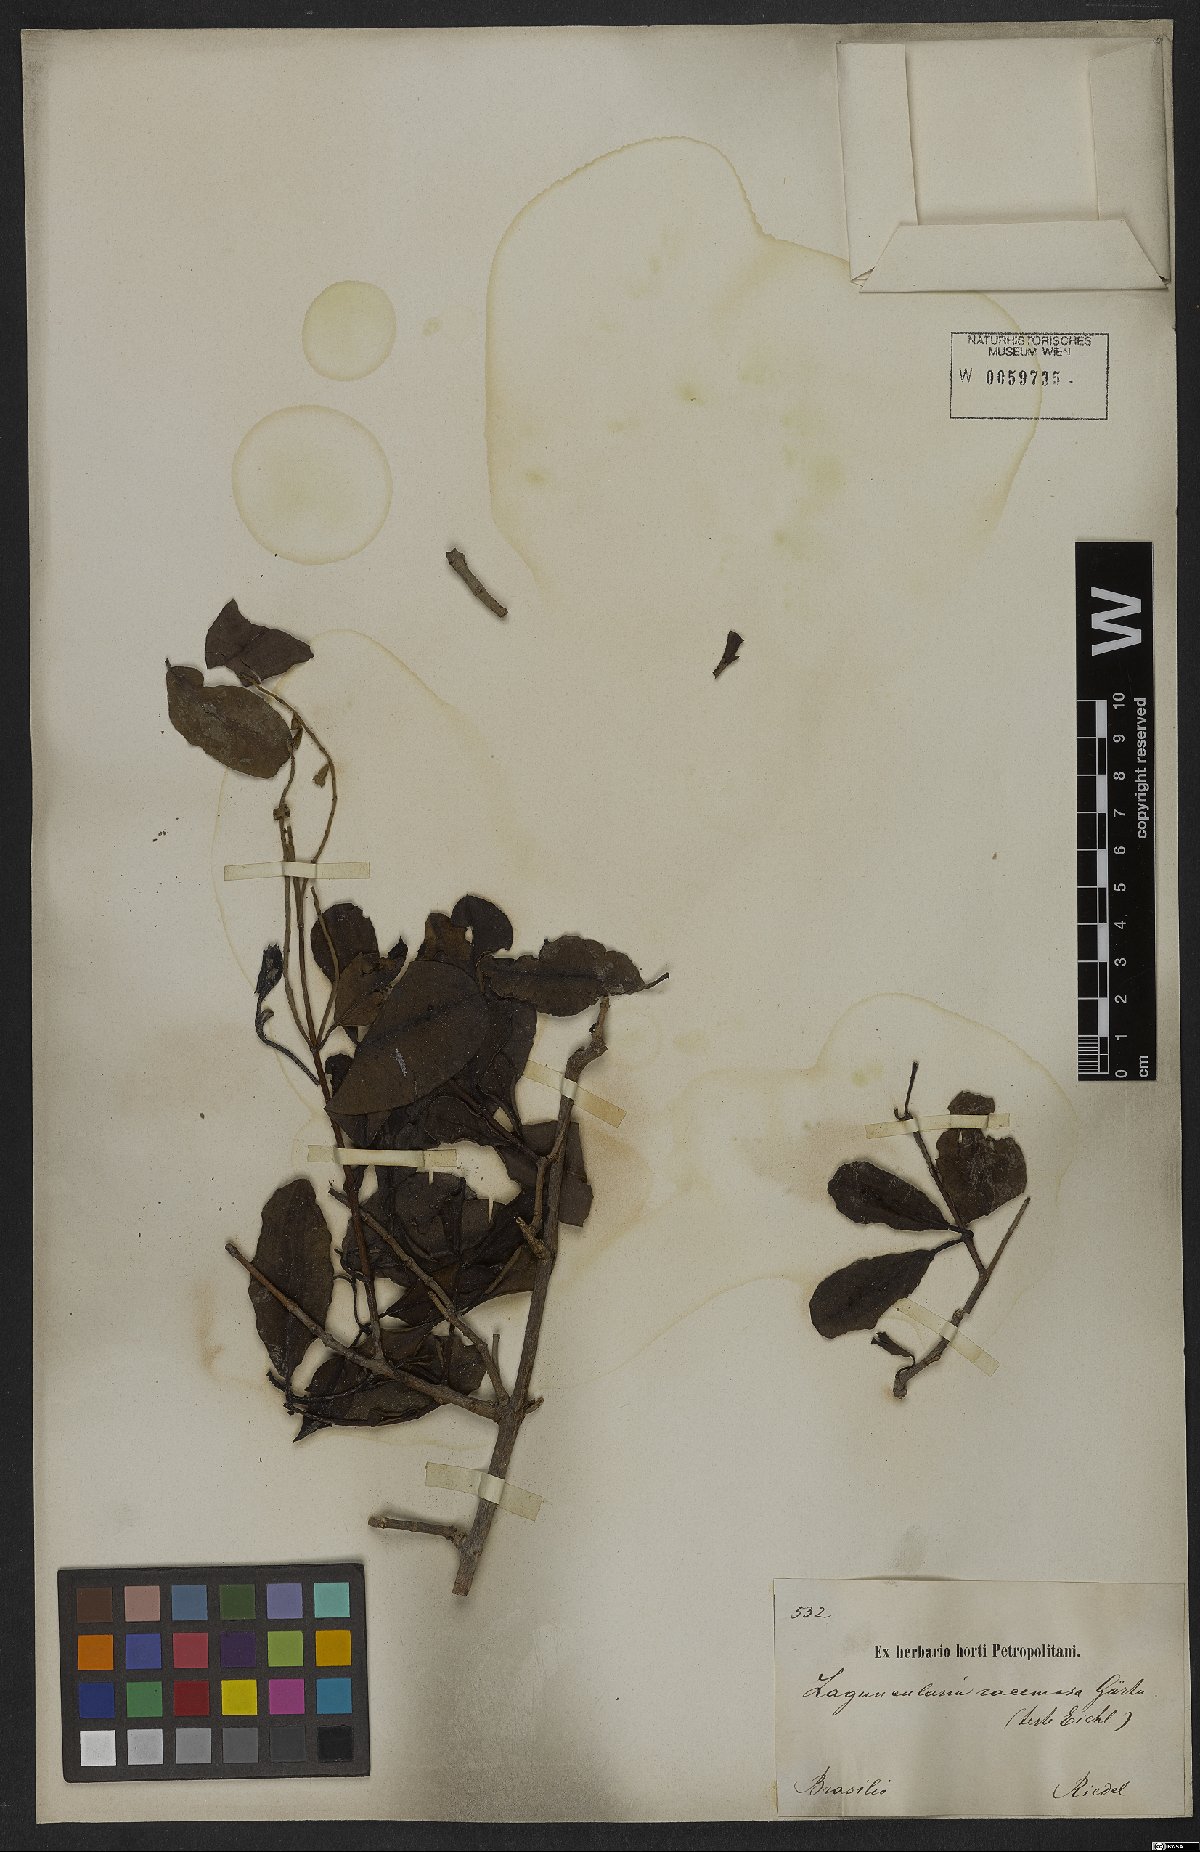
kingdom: Plantae
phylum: Tracheophyta
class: Magnoliopsida
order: Myrtales
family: Combretaceae
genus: Laguncularia
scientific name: Laguncularia racemosa
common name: White mangrove
